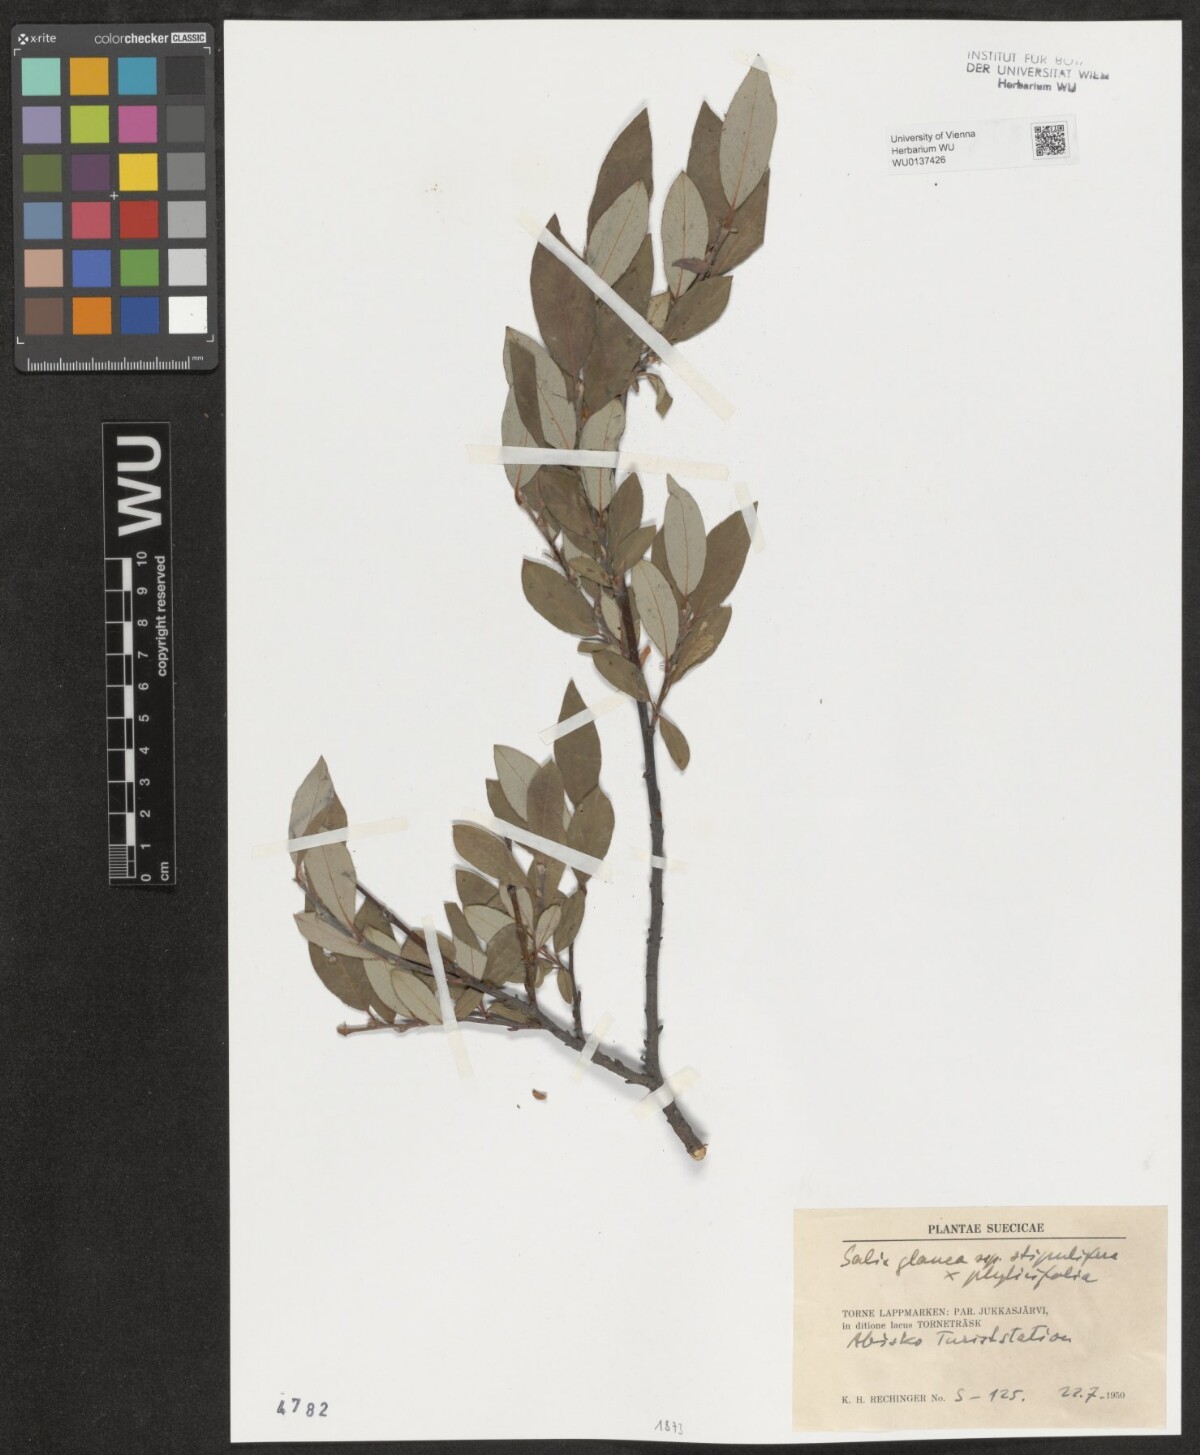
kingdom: Plantae
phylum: Tracheophyta
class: Magnoliopsida
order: Malpighiales
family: Salicaceae
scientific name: Salicaceae
